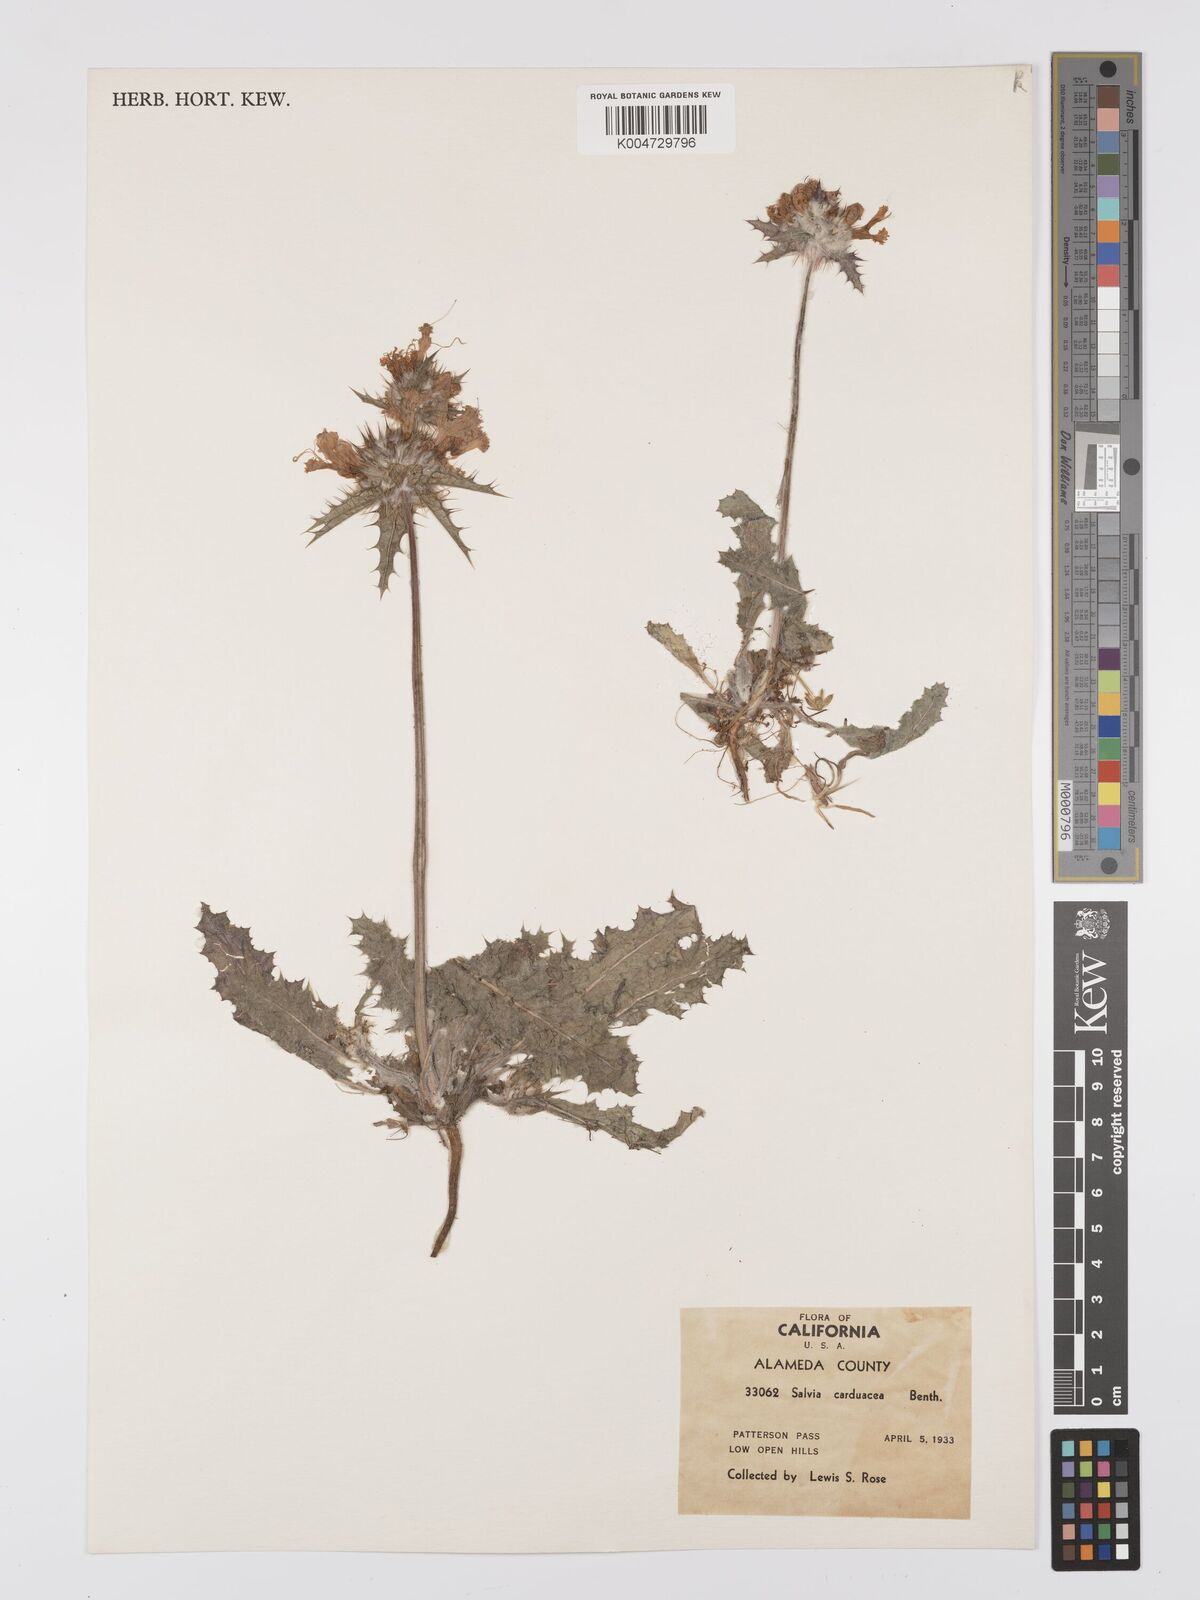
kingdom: Plantae
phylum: Tracheophyta
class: Magnoliopsida
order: Lamiales
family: Lamiaceae
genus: Salvia
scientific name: Salvia carduacea
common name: Thistle sage
